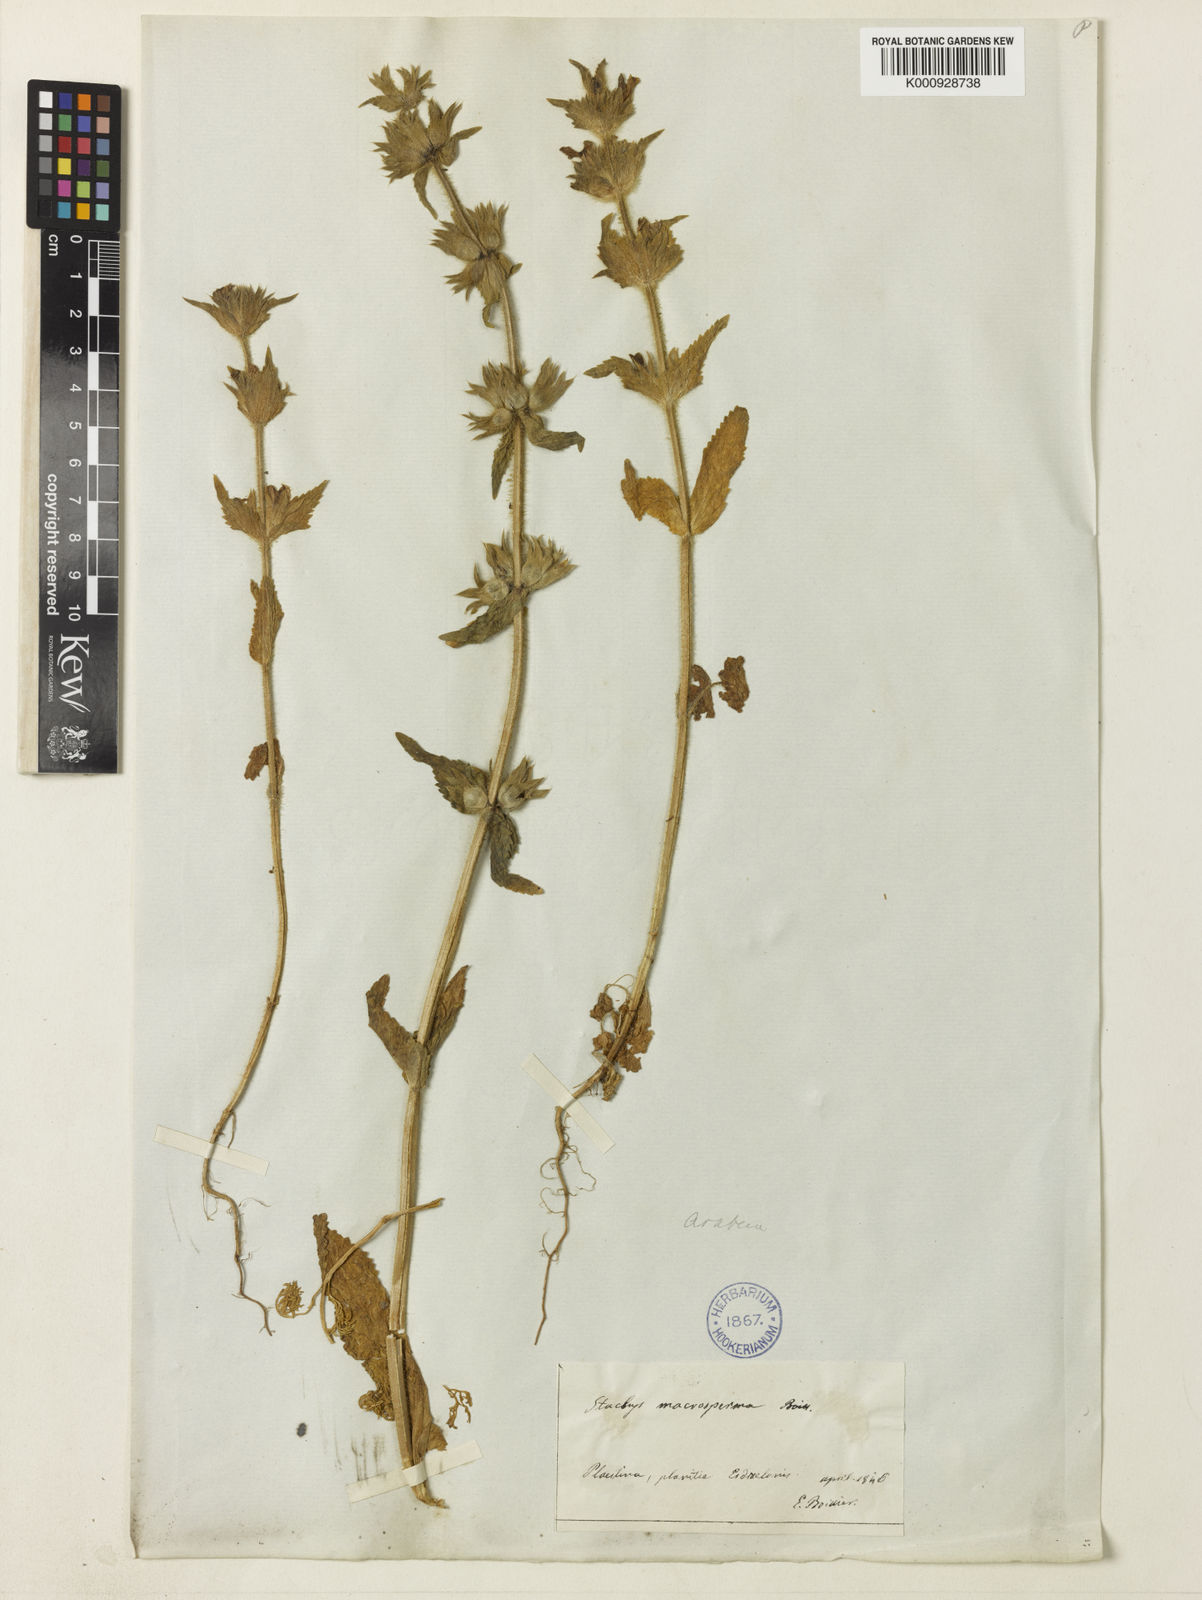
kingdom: Plantae
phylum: Tracheophyta
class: Magnoliopsida
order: Lamiales
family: Lamiaceae
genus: Stachys
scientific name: Stachys arabica
